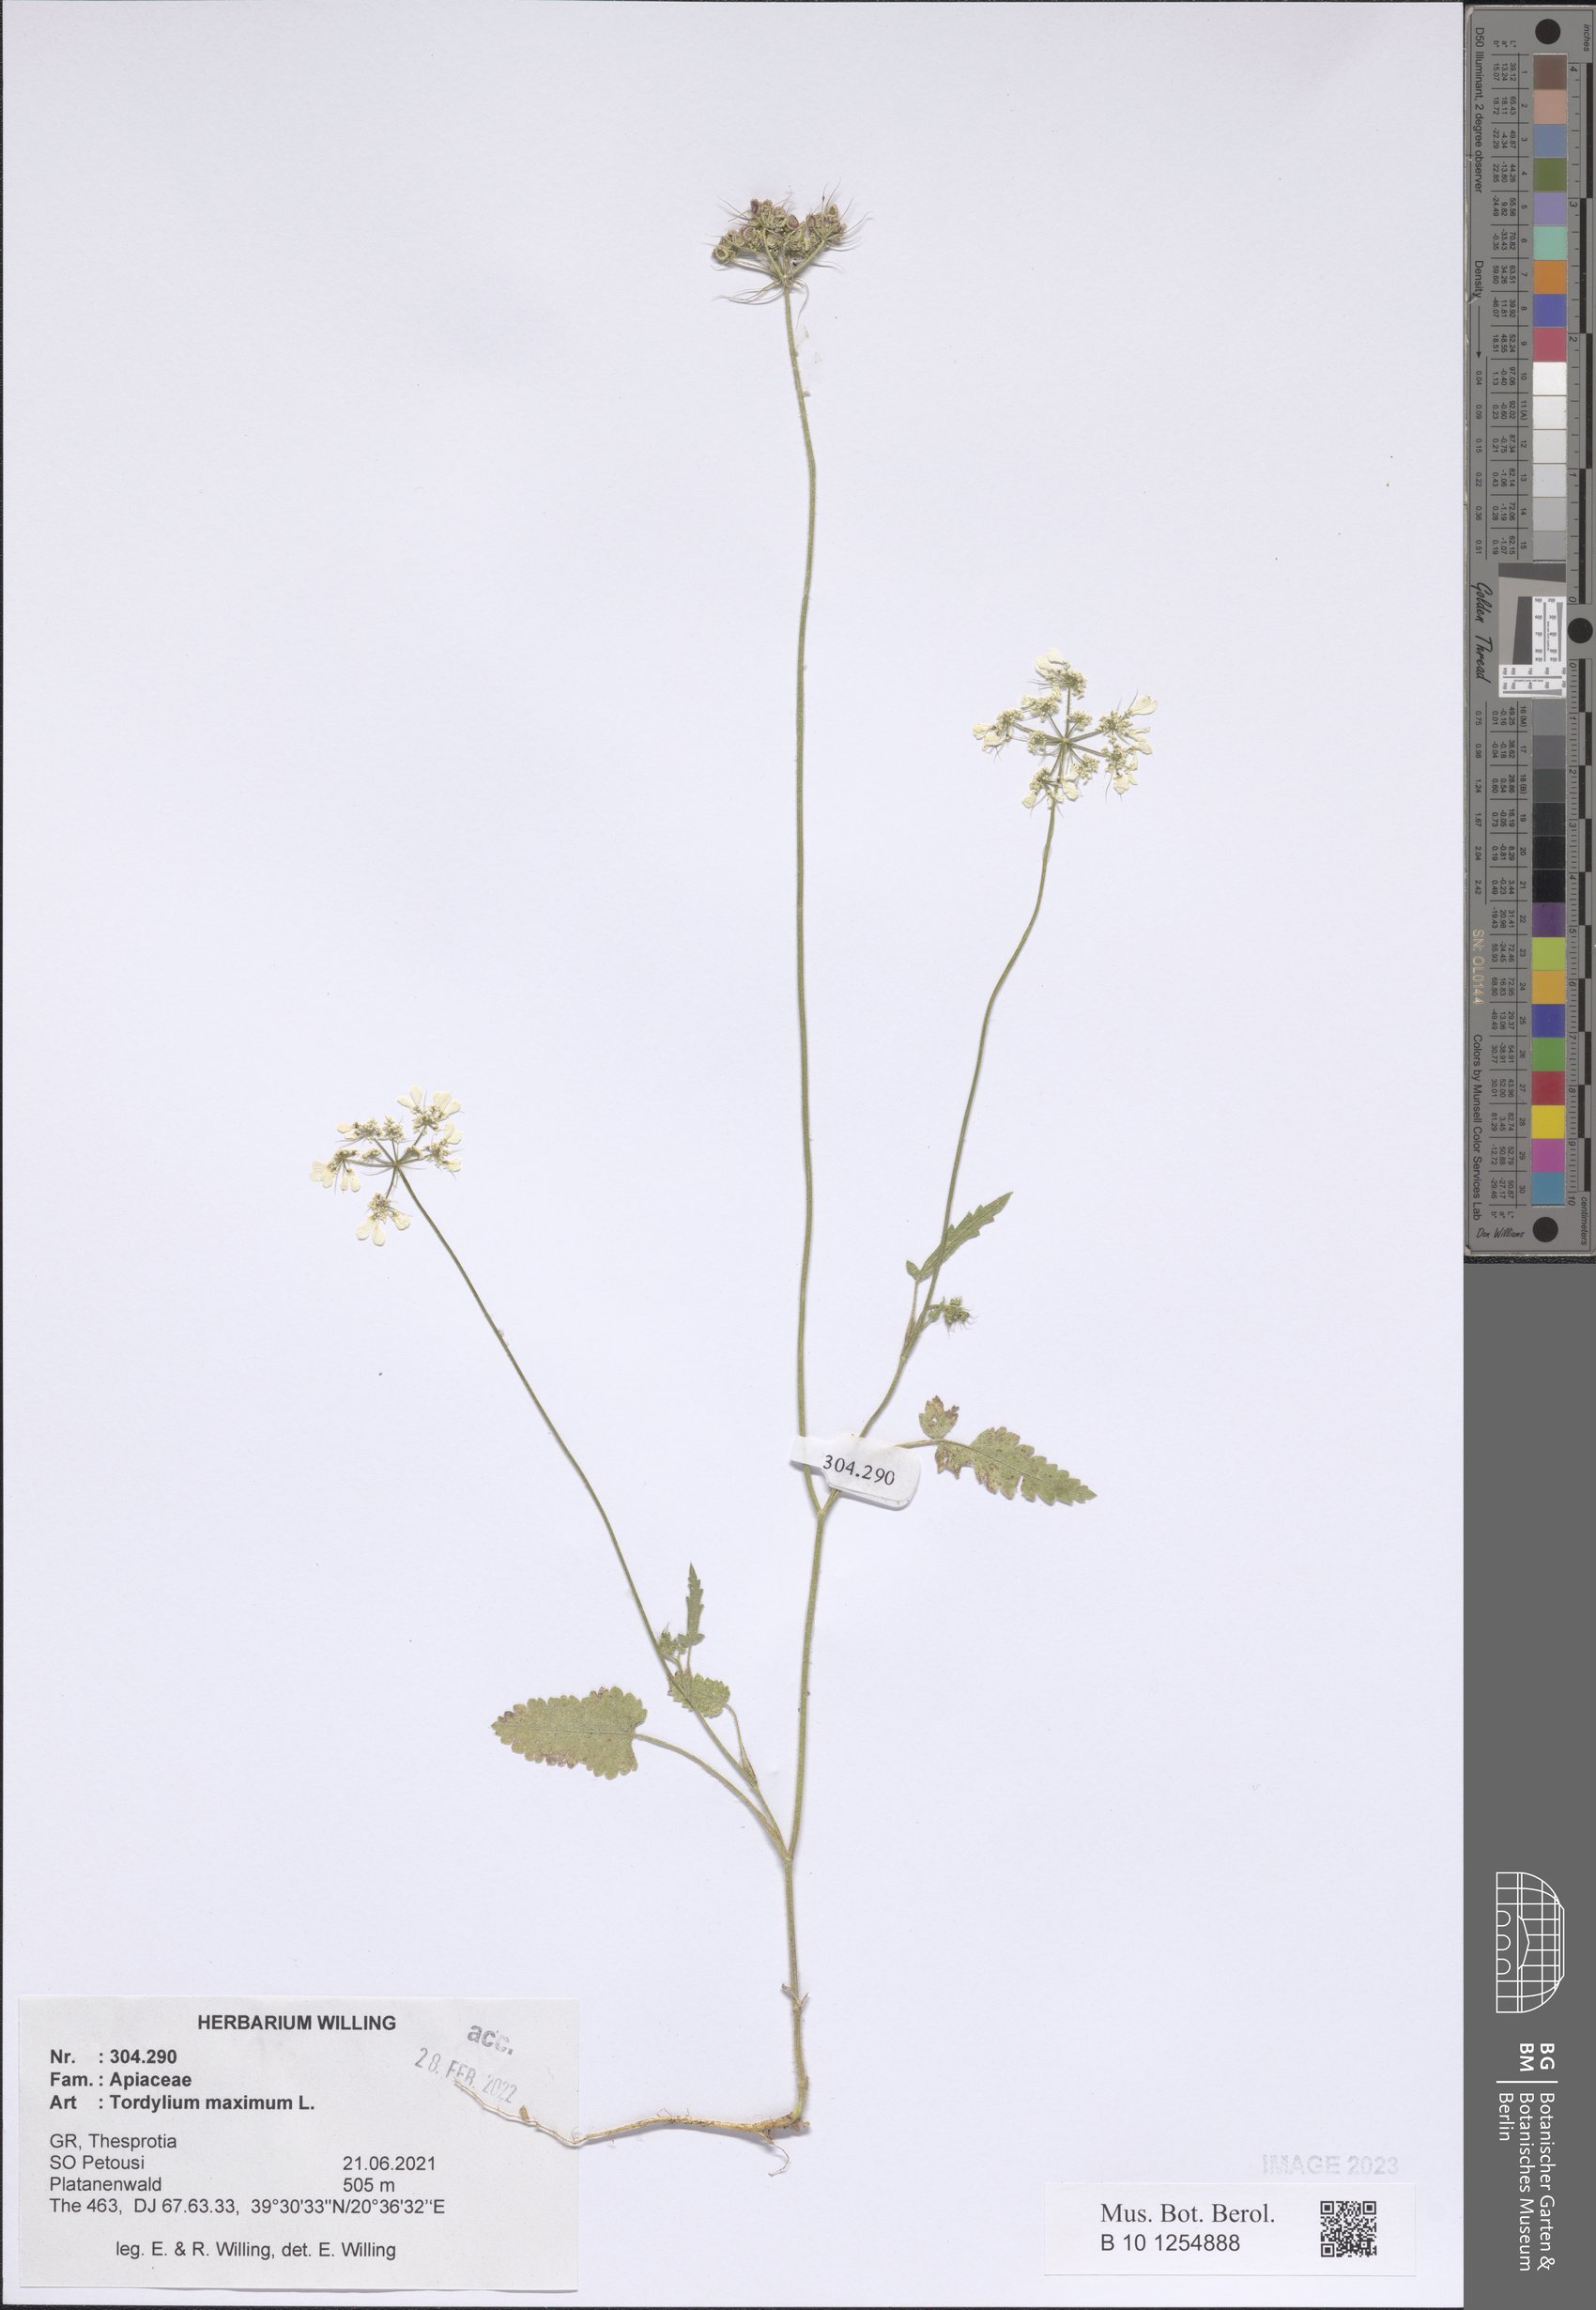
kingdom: Plantae
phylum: Tracheophyta
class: Magnoliopsida
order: Apiales
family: Apiaceae
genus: Tordylium
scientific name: Tordylium maximum
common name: Hartwort
